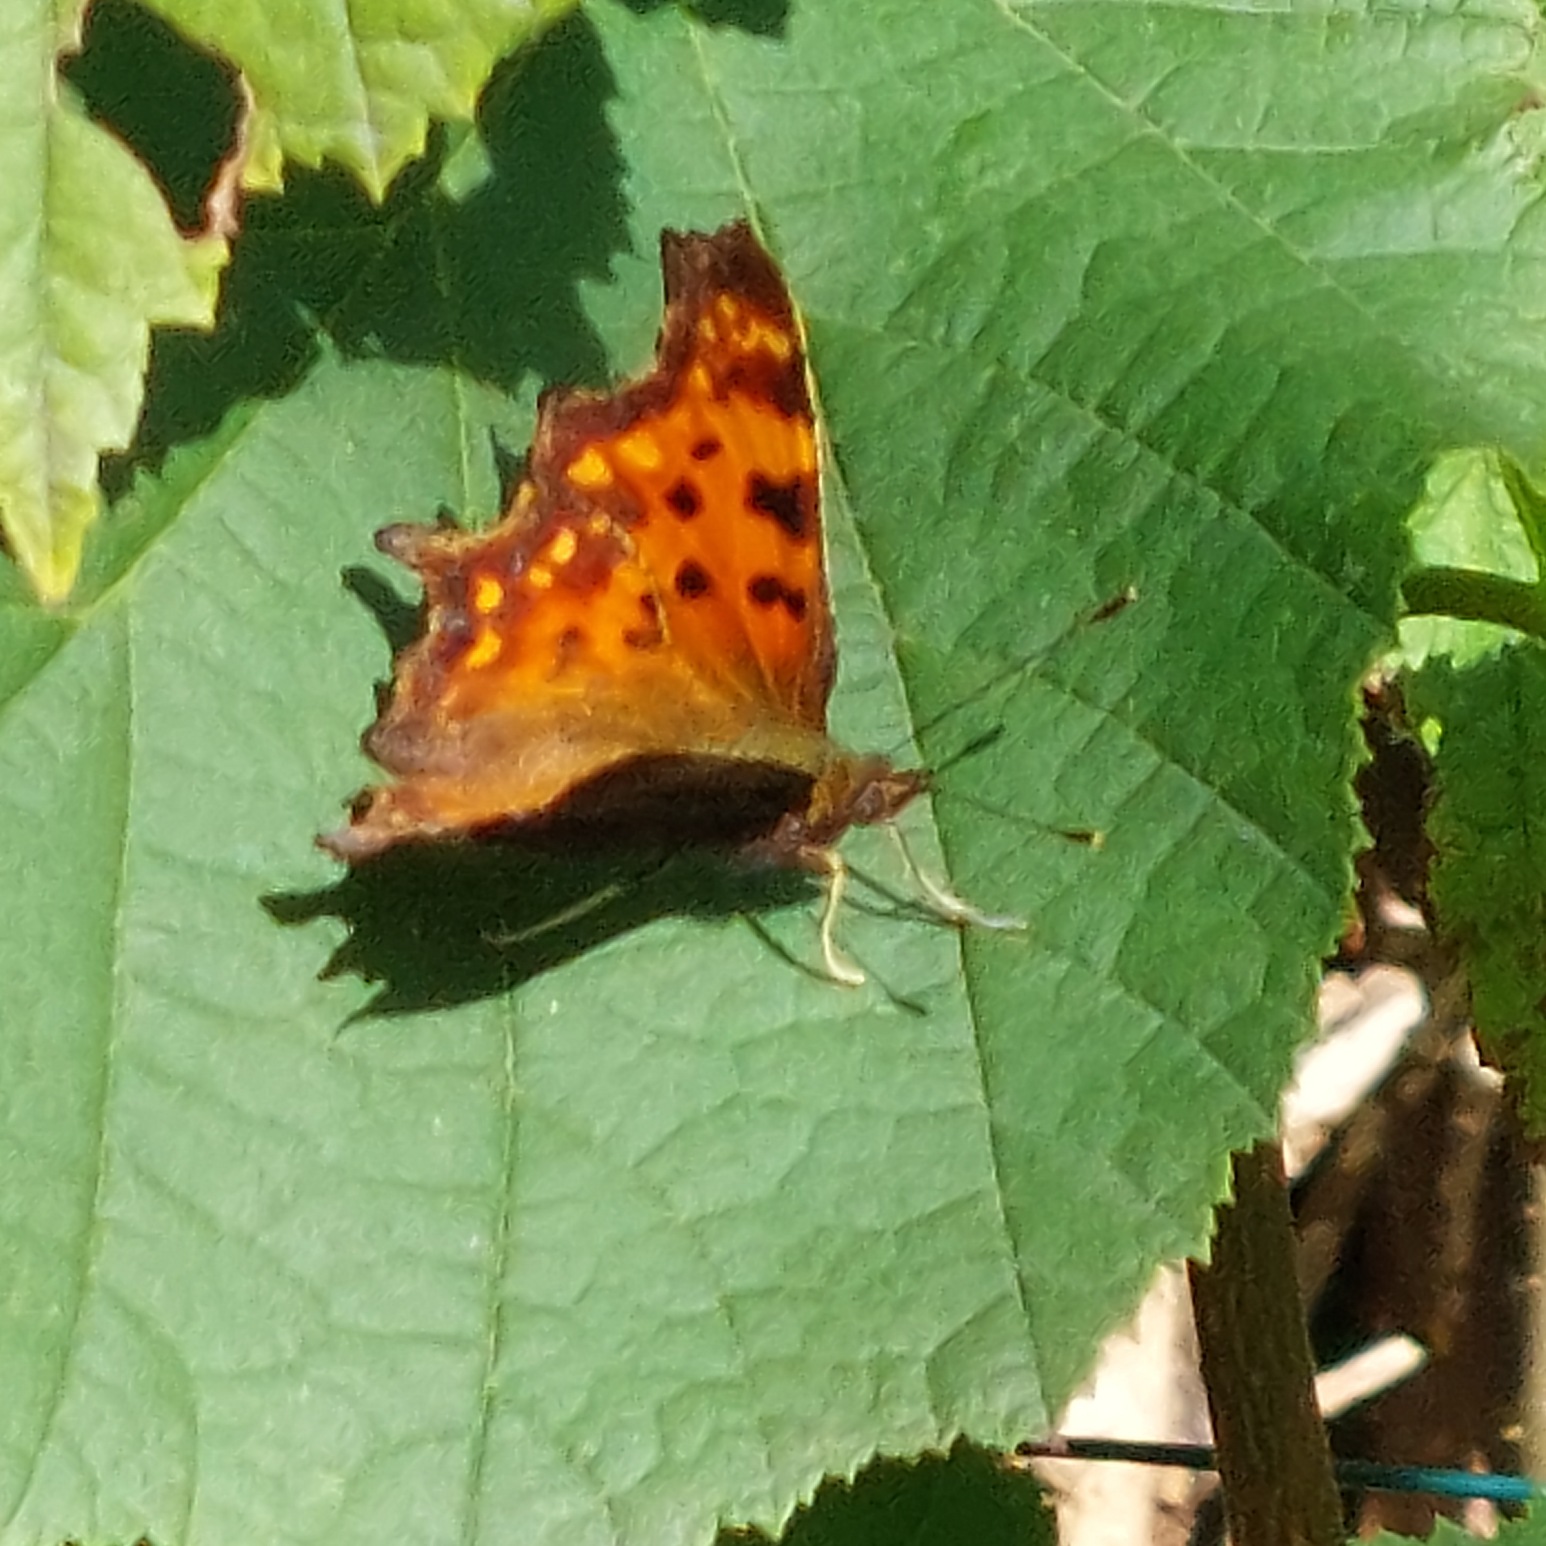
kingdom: Animalia
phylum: Arthropoda
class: Insecta
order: Lepidoptera
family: Nymphalidae
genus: Polygonia
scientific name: Polygonia c-album
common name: Det hvide C
